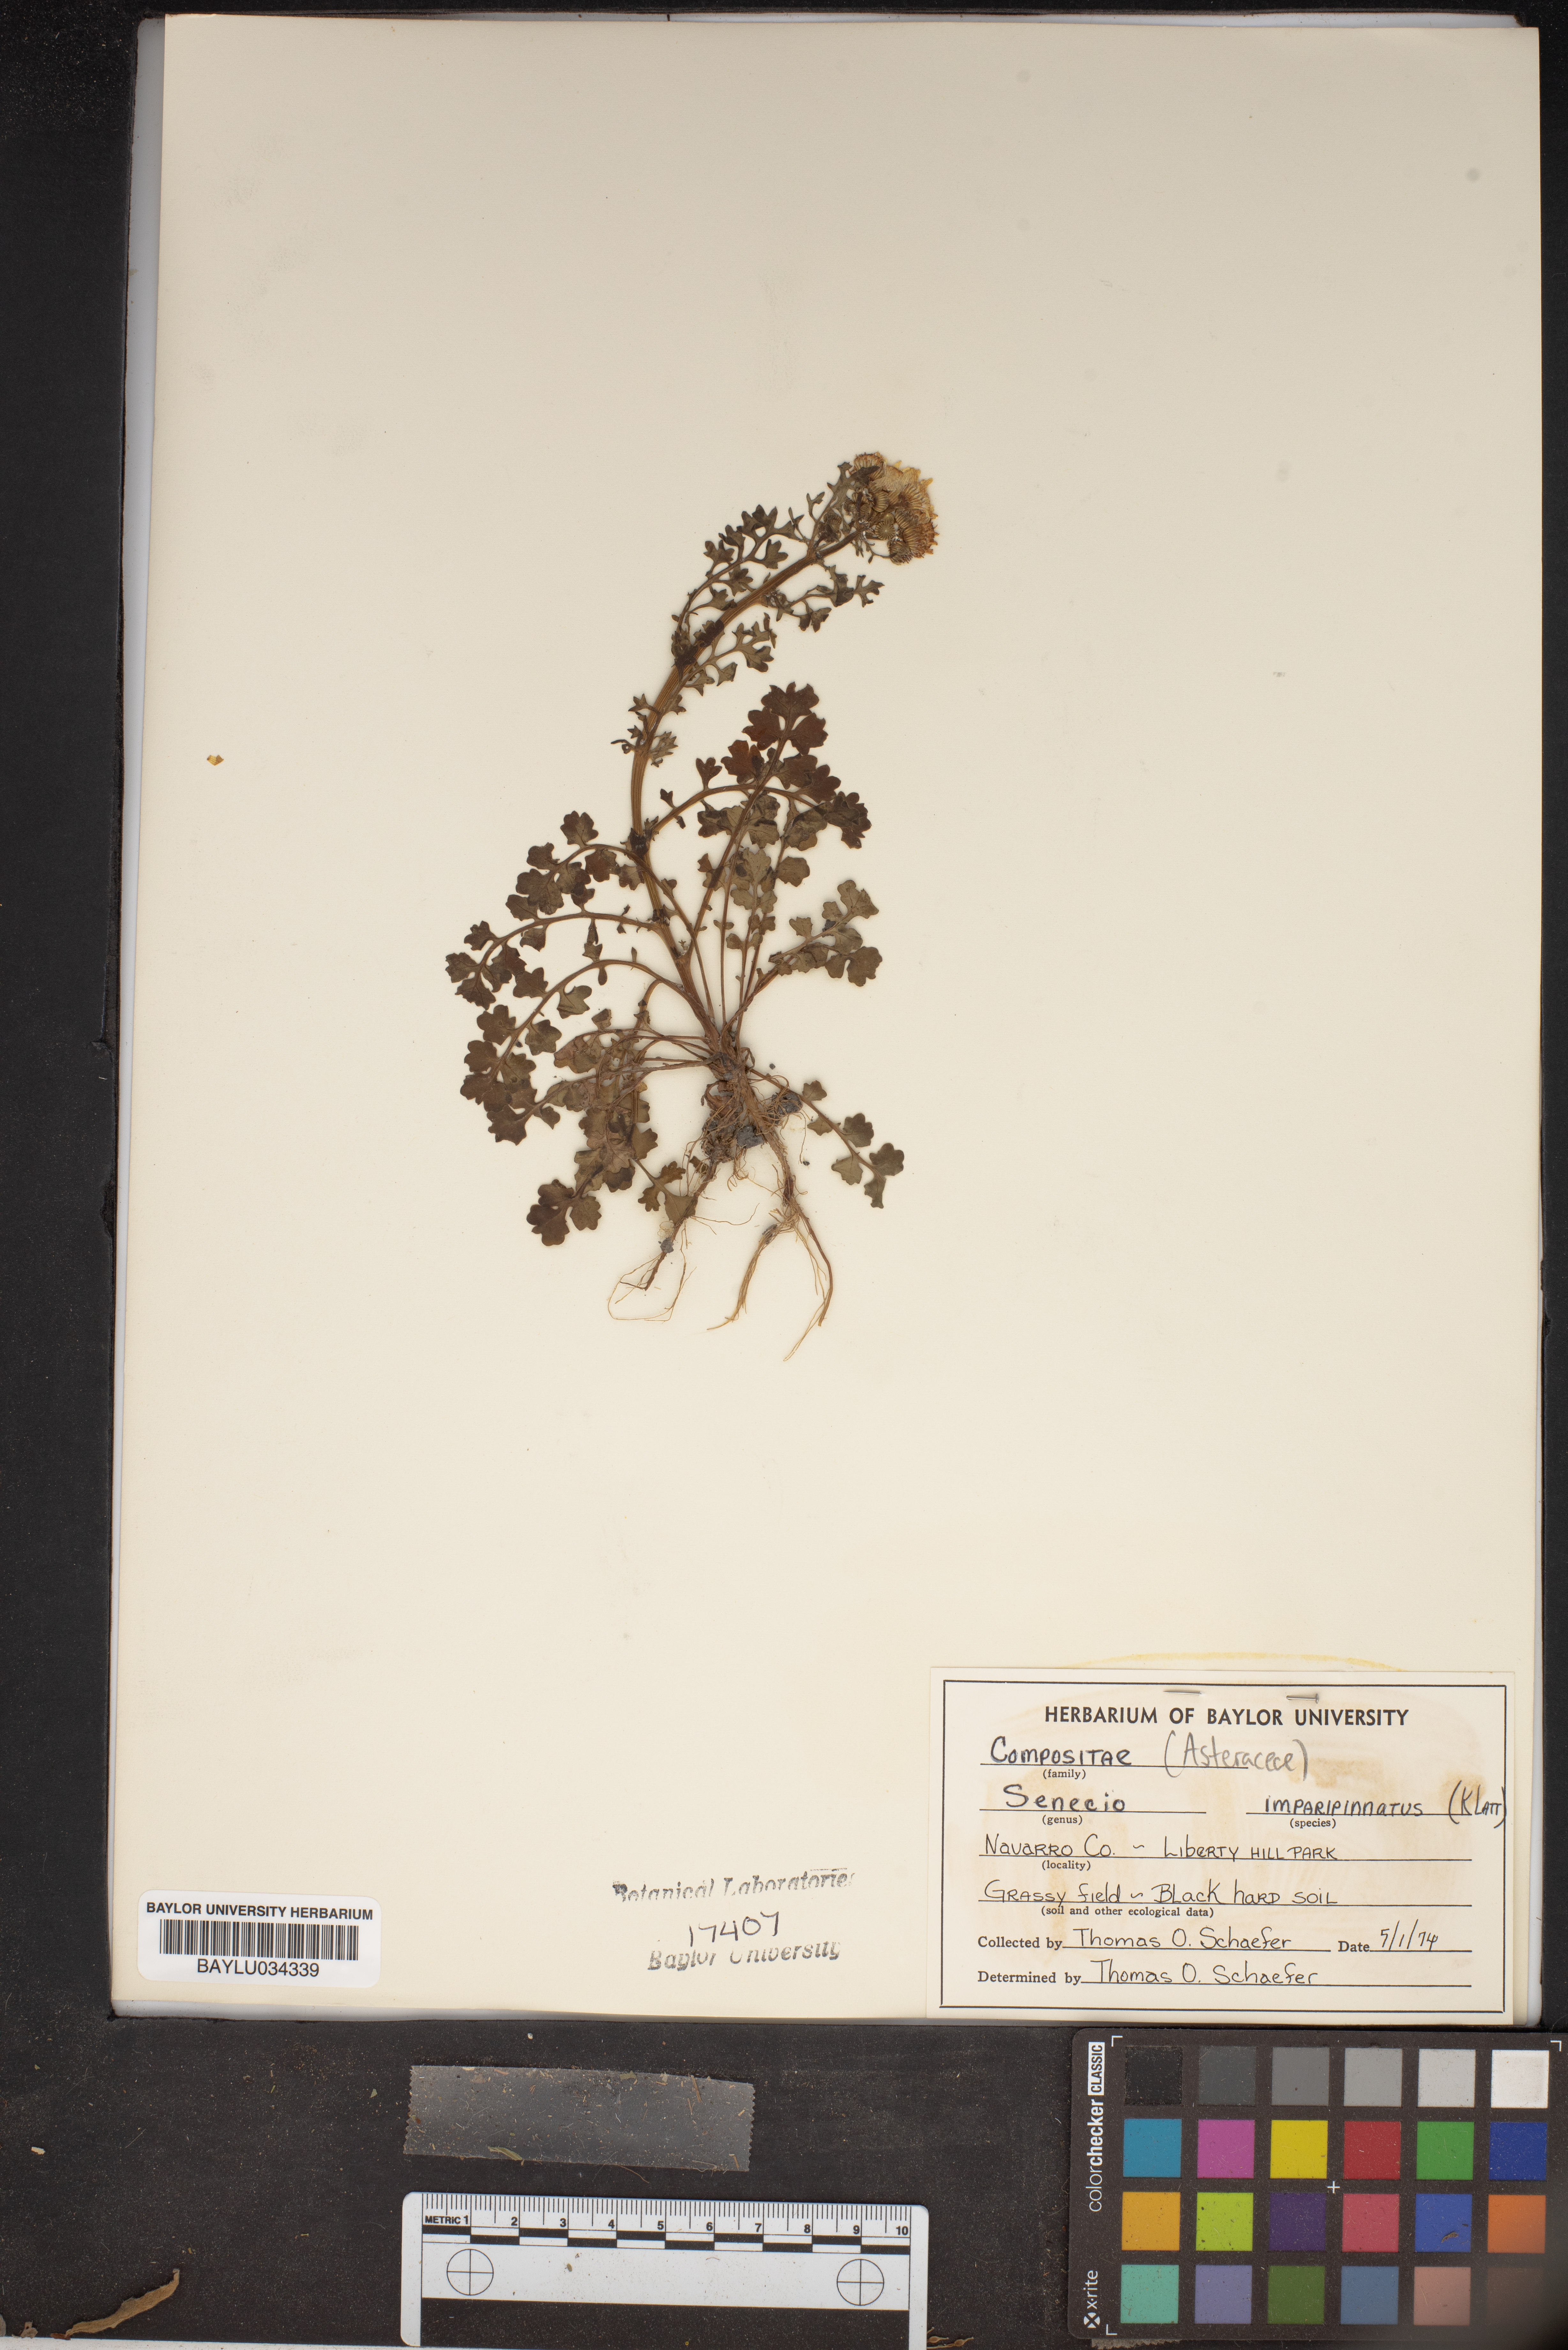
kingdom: Plantae
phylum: Tracheophyta
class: Magnoliopsida
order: Asterales
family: Asteraceae
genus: Packera
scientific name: Packera tampicana
